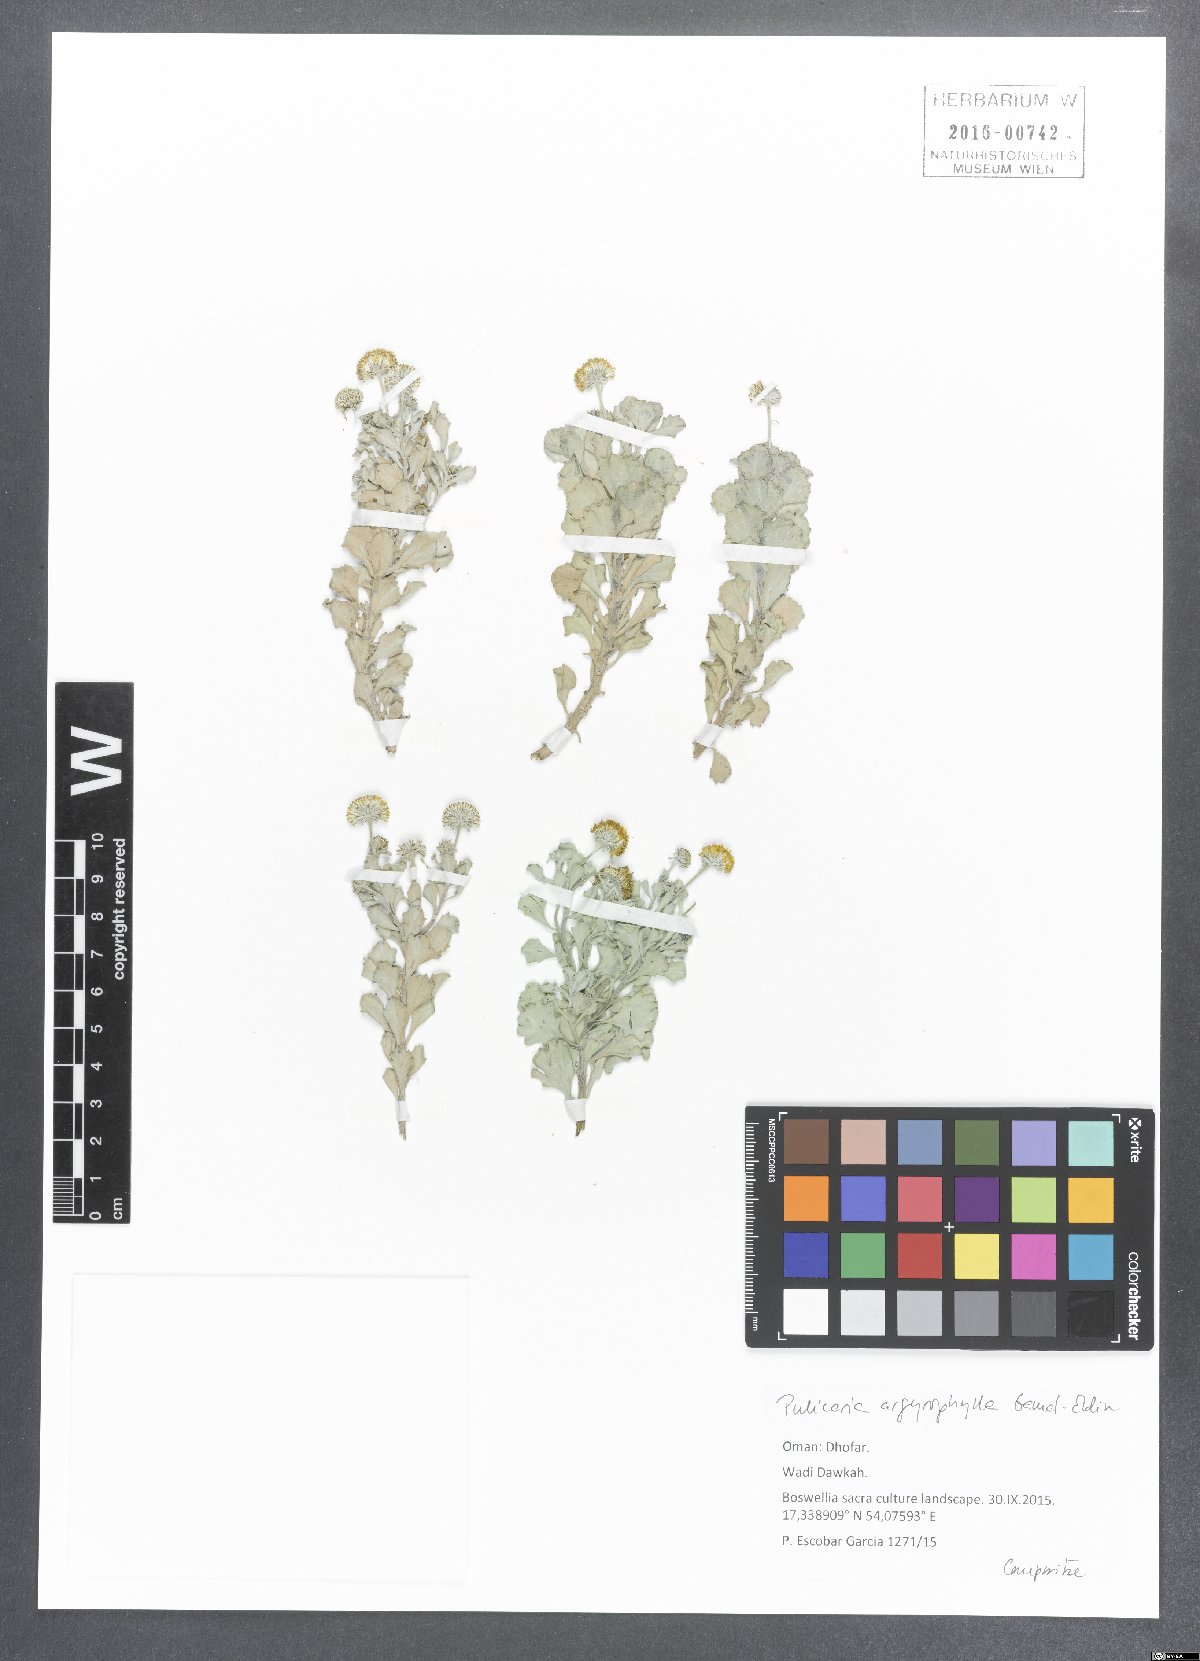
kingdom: Plantae
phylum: Tracheophyta
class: Magnoliopsida
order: Asterales
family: Asteraceae
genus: Pulicaria
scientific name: Pulicaria argyrophylla
